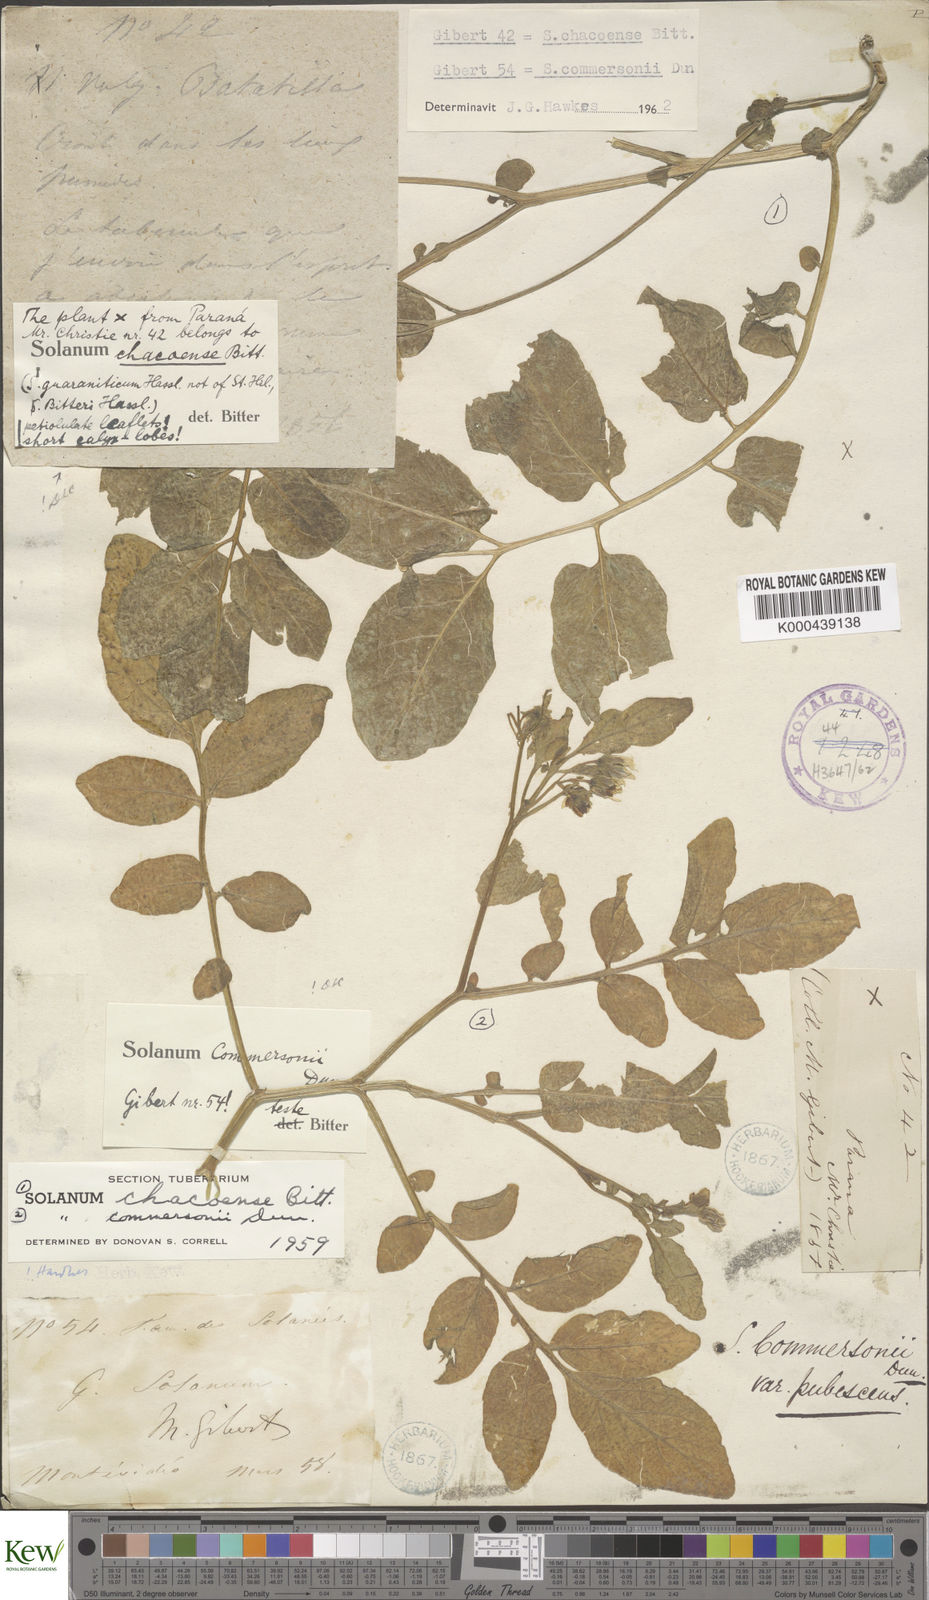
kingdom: Plantae
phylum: Tracheophyta
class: Magnoliopsida
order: Solanales
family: Solanaceae
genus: Solanum
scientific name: Solanum commersonii
